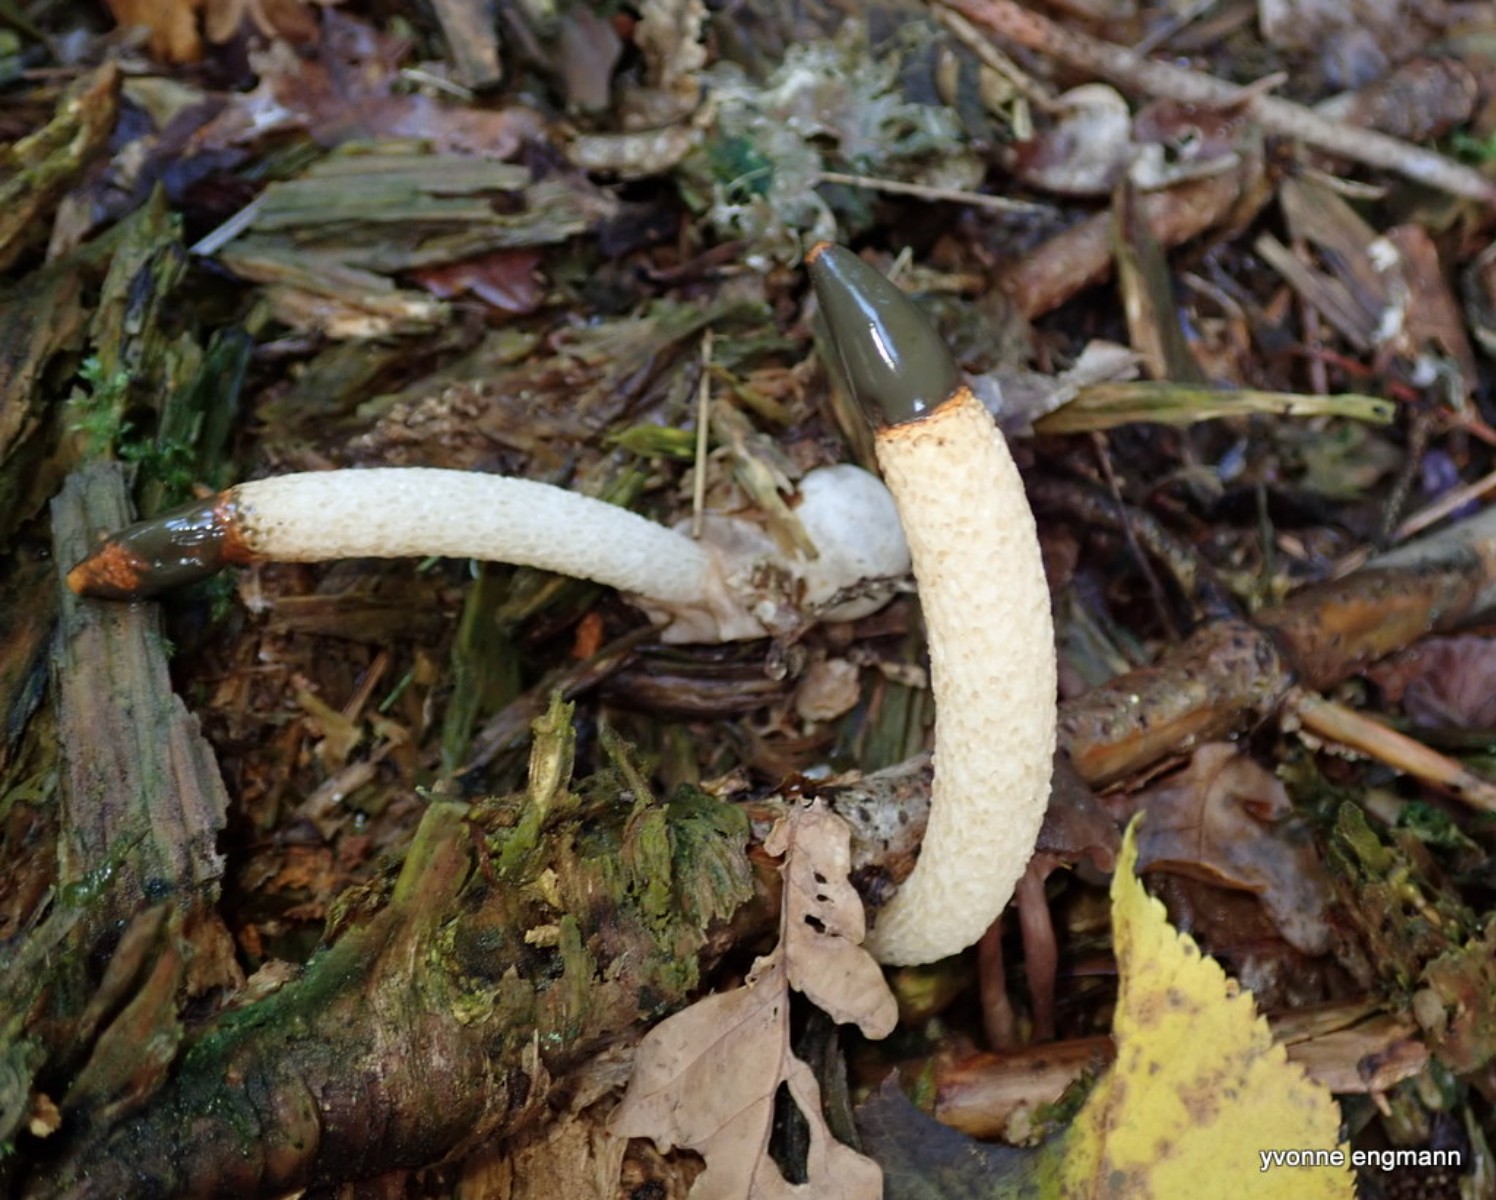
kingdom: Fungi
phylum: Basidiomycota
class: Agaricomycetes
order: Phallales
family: Phallaceae
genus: Mutinus
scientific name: Mutinus caninus
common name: hunde-stinksvamp
